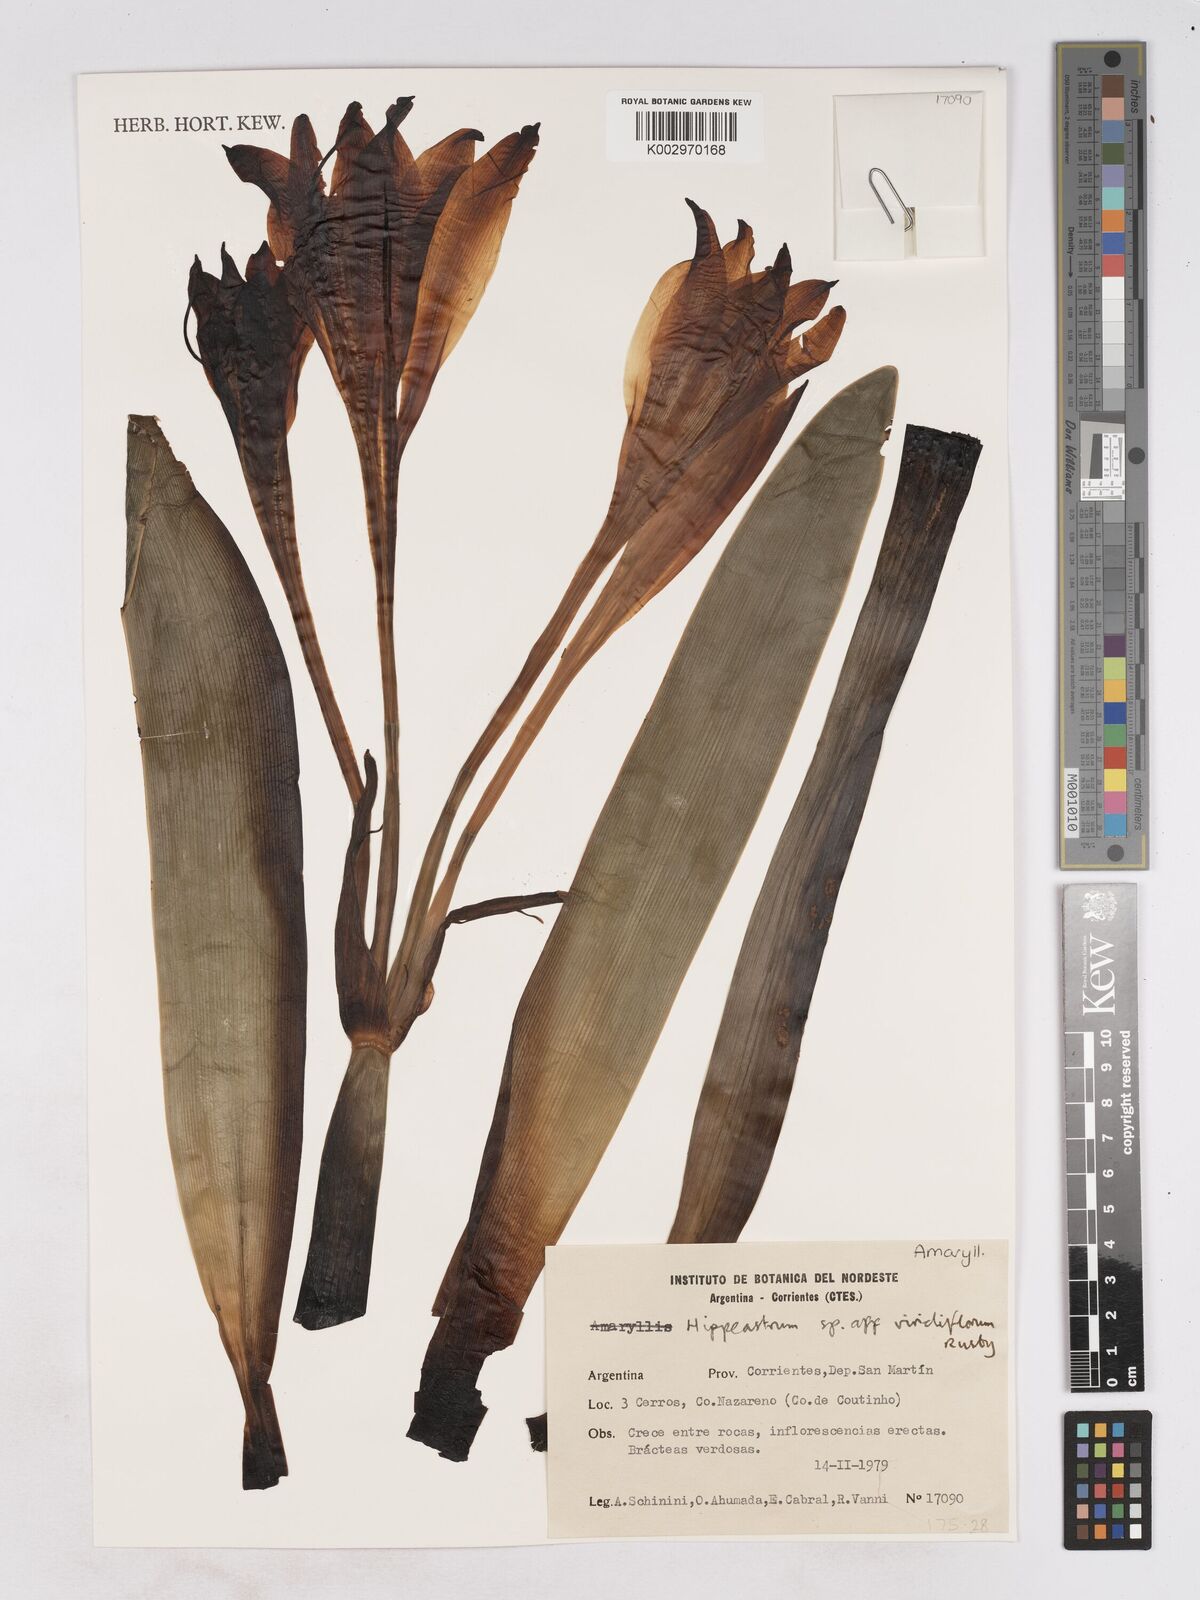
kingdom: Plantae
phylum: Tracheophyta
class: Liliopsida
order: Asparagales
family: Amaryllidaceae
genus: Hippeastrum
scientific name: Hippeastrum viridiflorum
